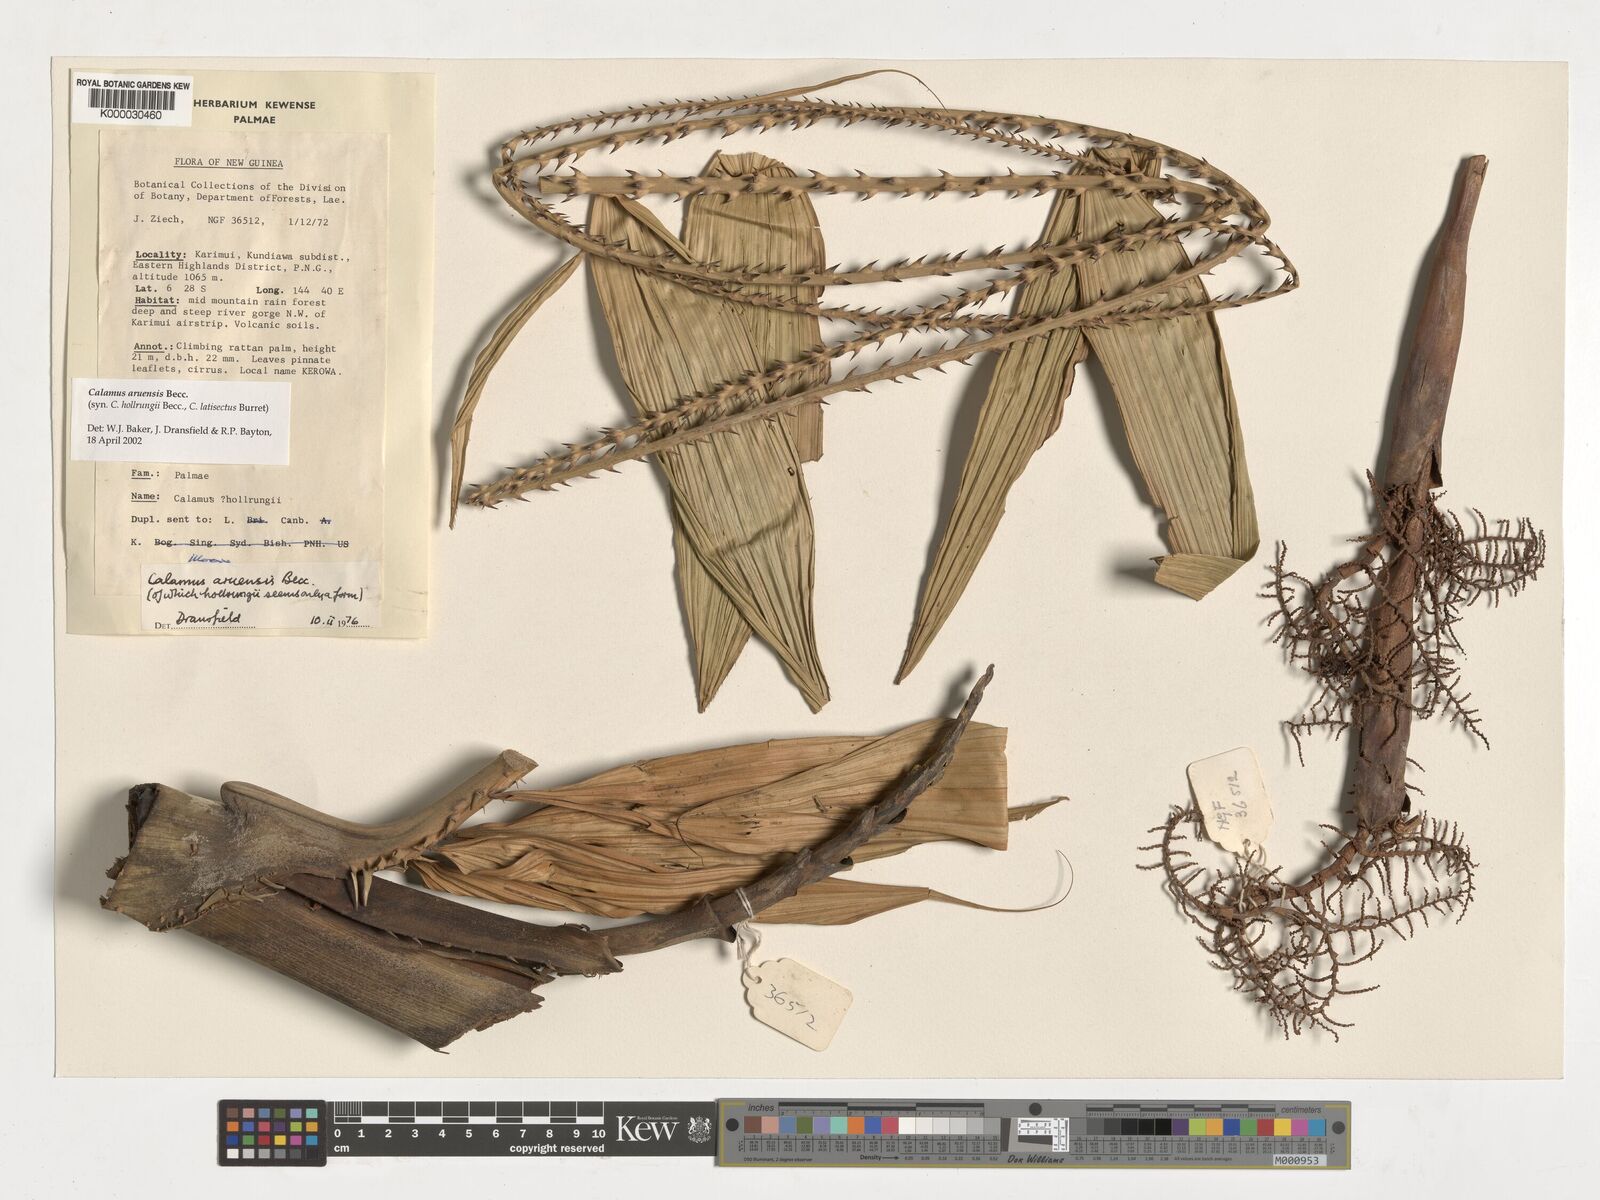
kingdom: Plantae
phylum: Tracheophyta
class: Liliopsida
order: Arecales
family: Arecaceae
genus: Calamus
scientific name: Calamus aruensis
